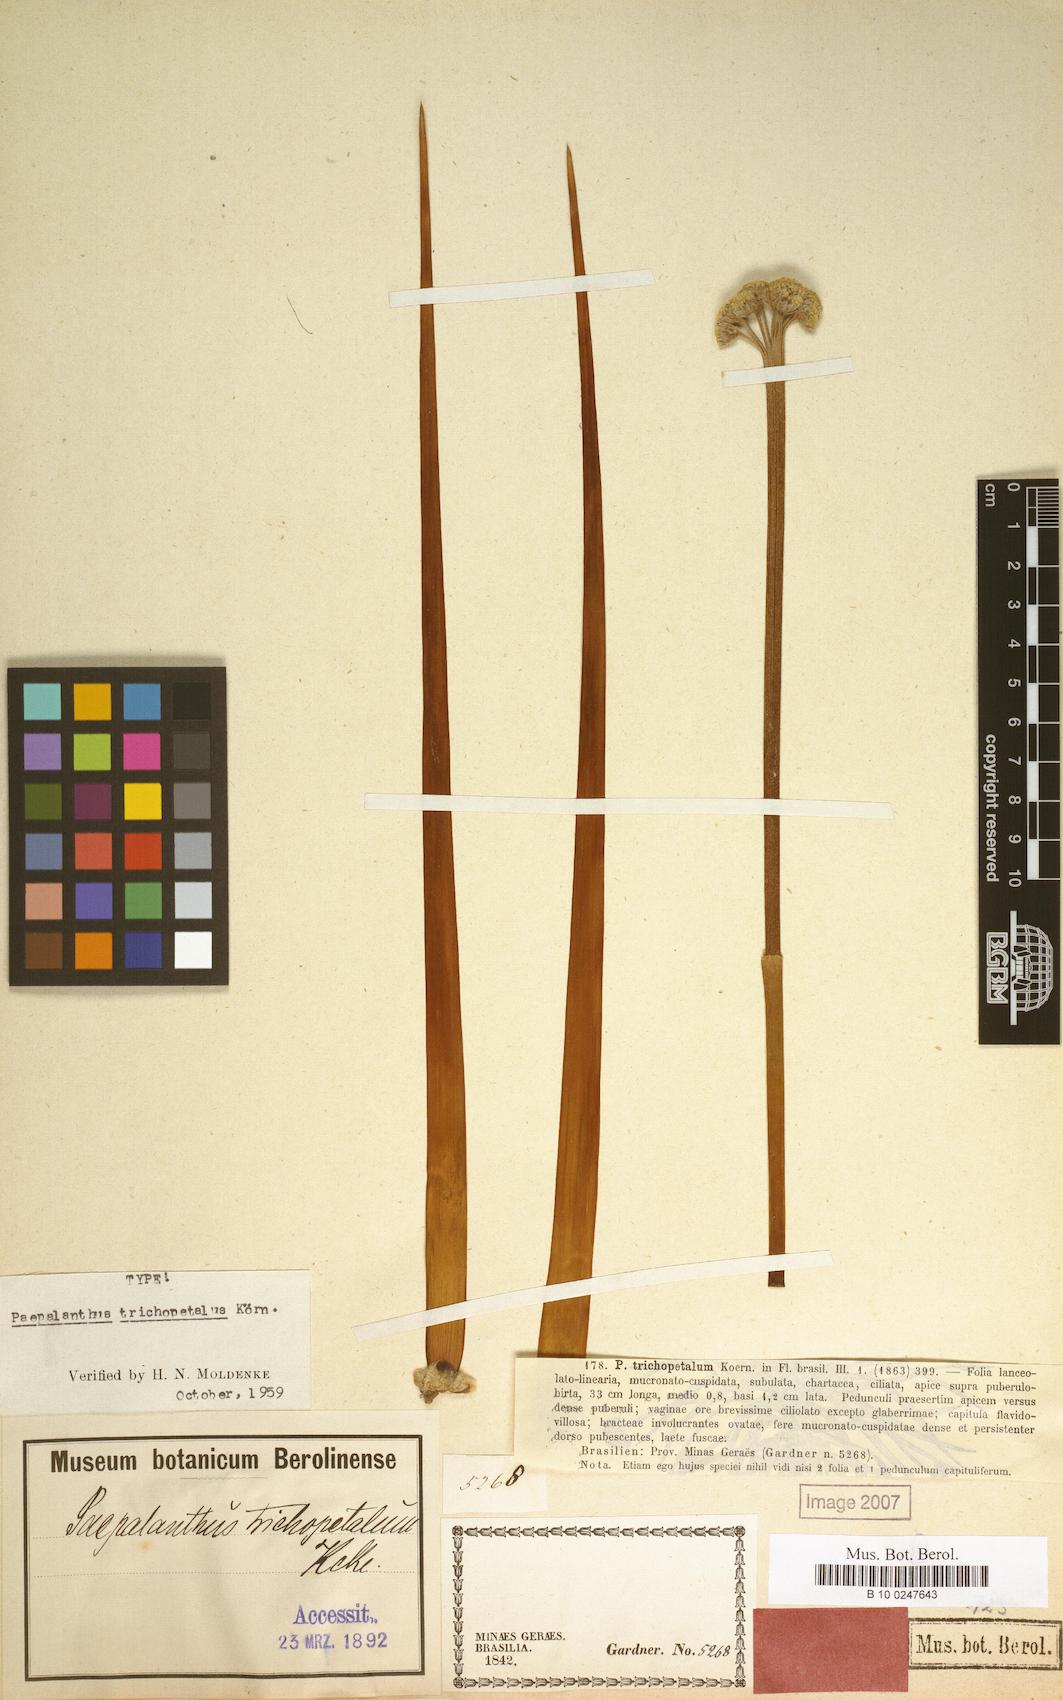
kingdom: Plantae
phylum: Tracheophyta
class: Liliopsida
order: Poales
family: Eriocaulaceae
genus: Paepalanthus
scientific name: Paepalanthus trichopetalus
